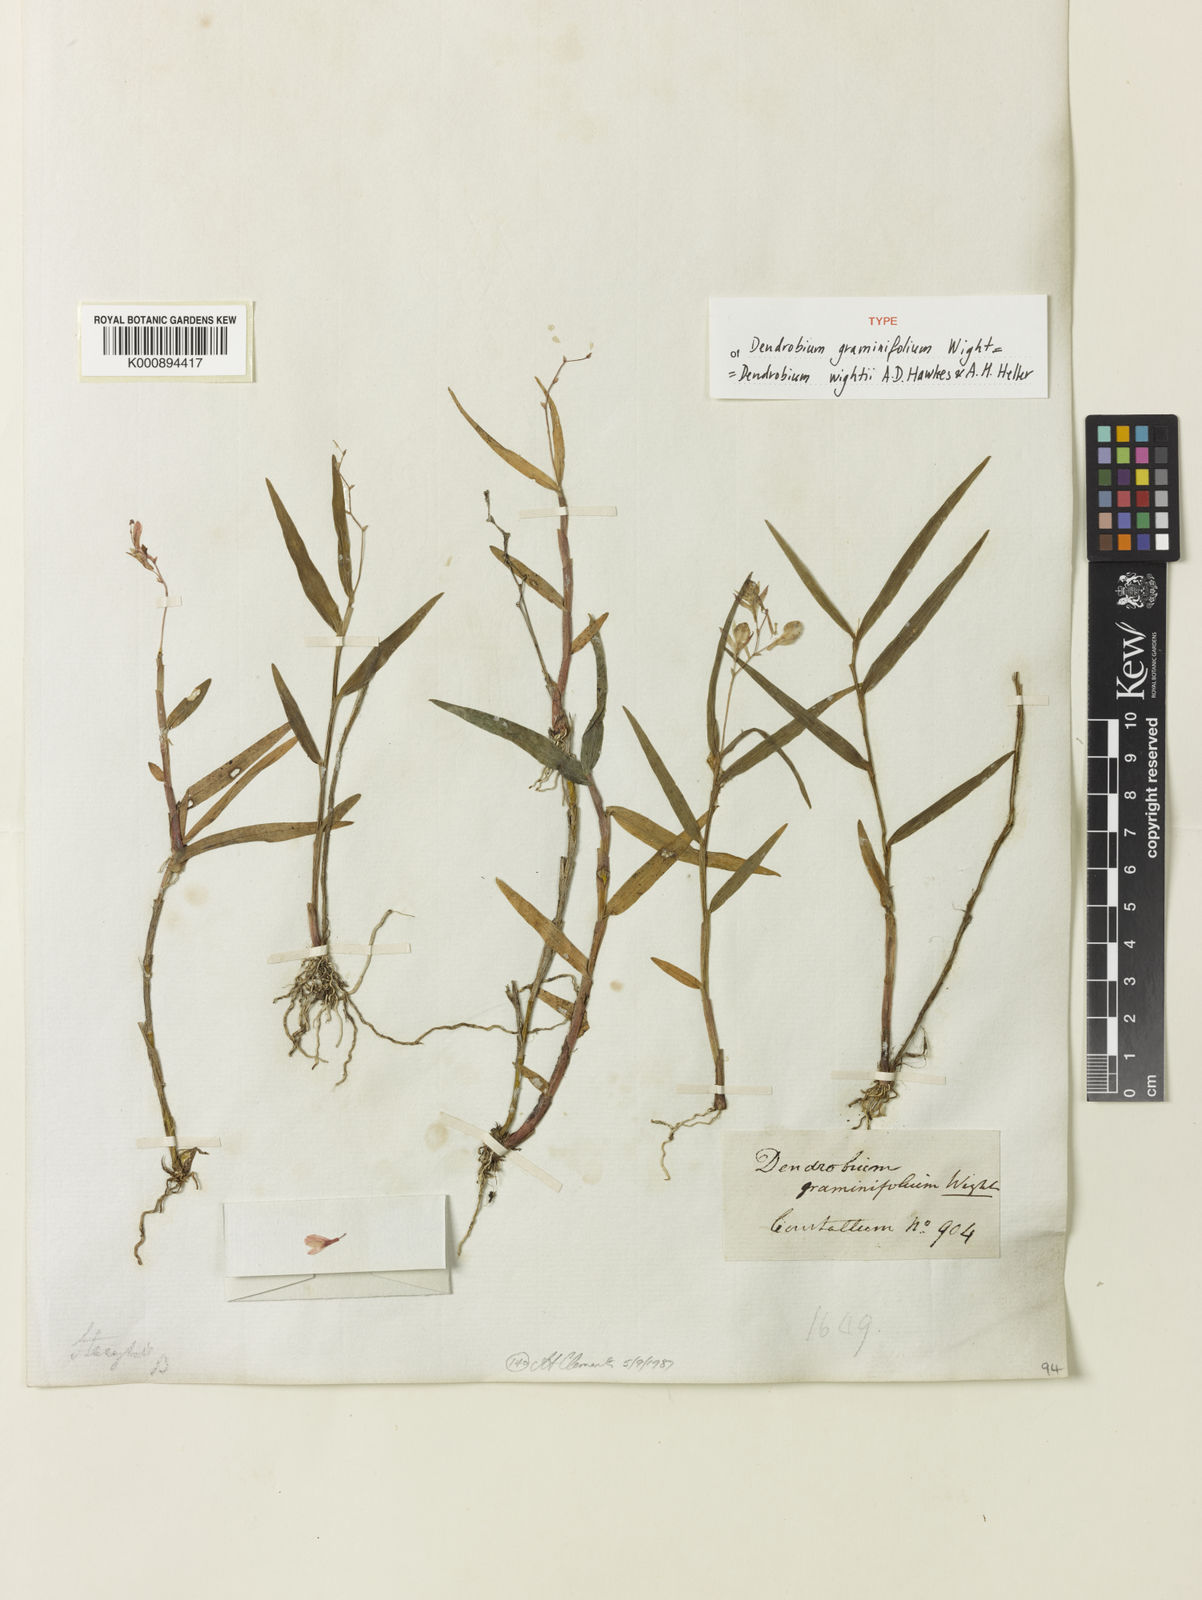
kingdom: Plantae
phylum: Tracheophyta
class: Liliopsida
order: Asparagales
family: Orchidaceae
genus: Dendrobium
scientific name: Dendrobium wightii
